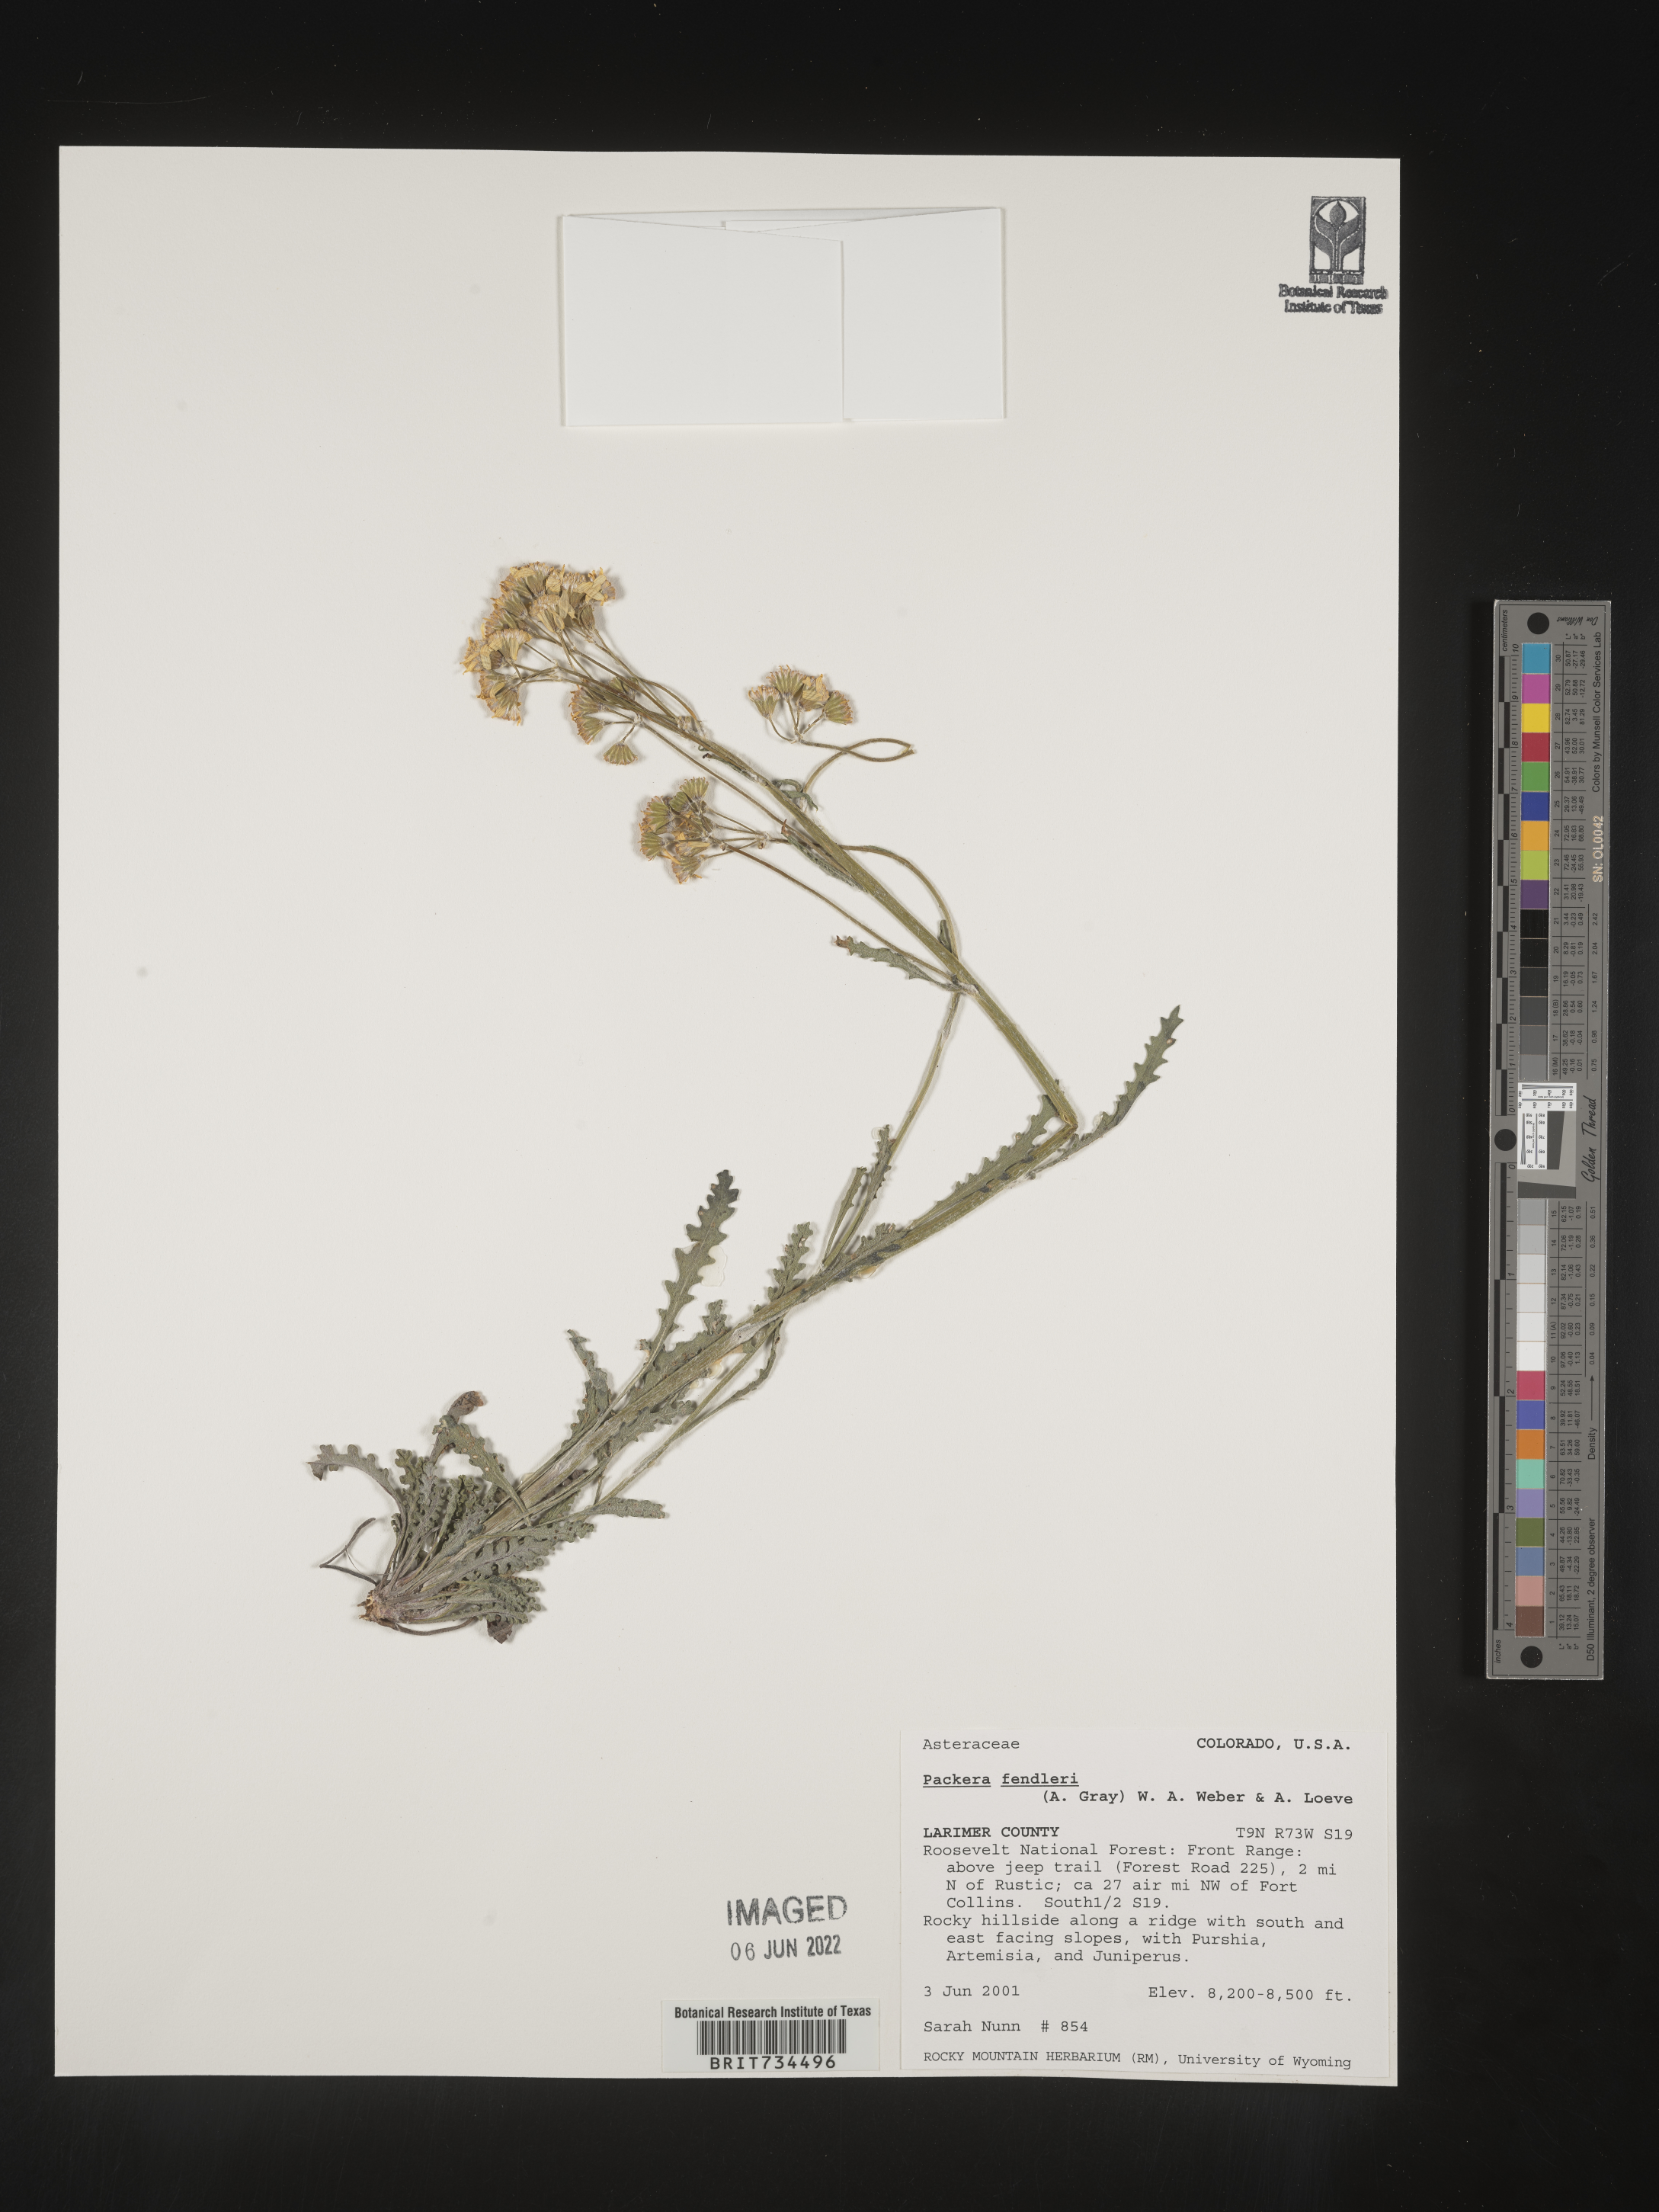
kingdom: Plantae
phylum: Tracheophyta
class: Magnoliopsida
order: Asterales
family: Asteraceae
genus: Packera
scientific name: Packera fendleri
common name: Notch-leaf butterweed
